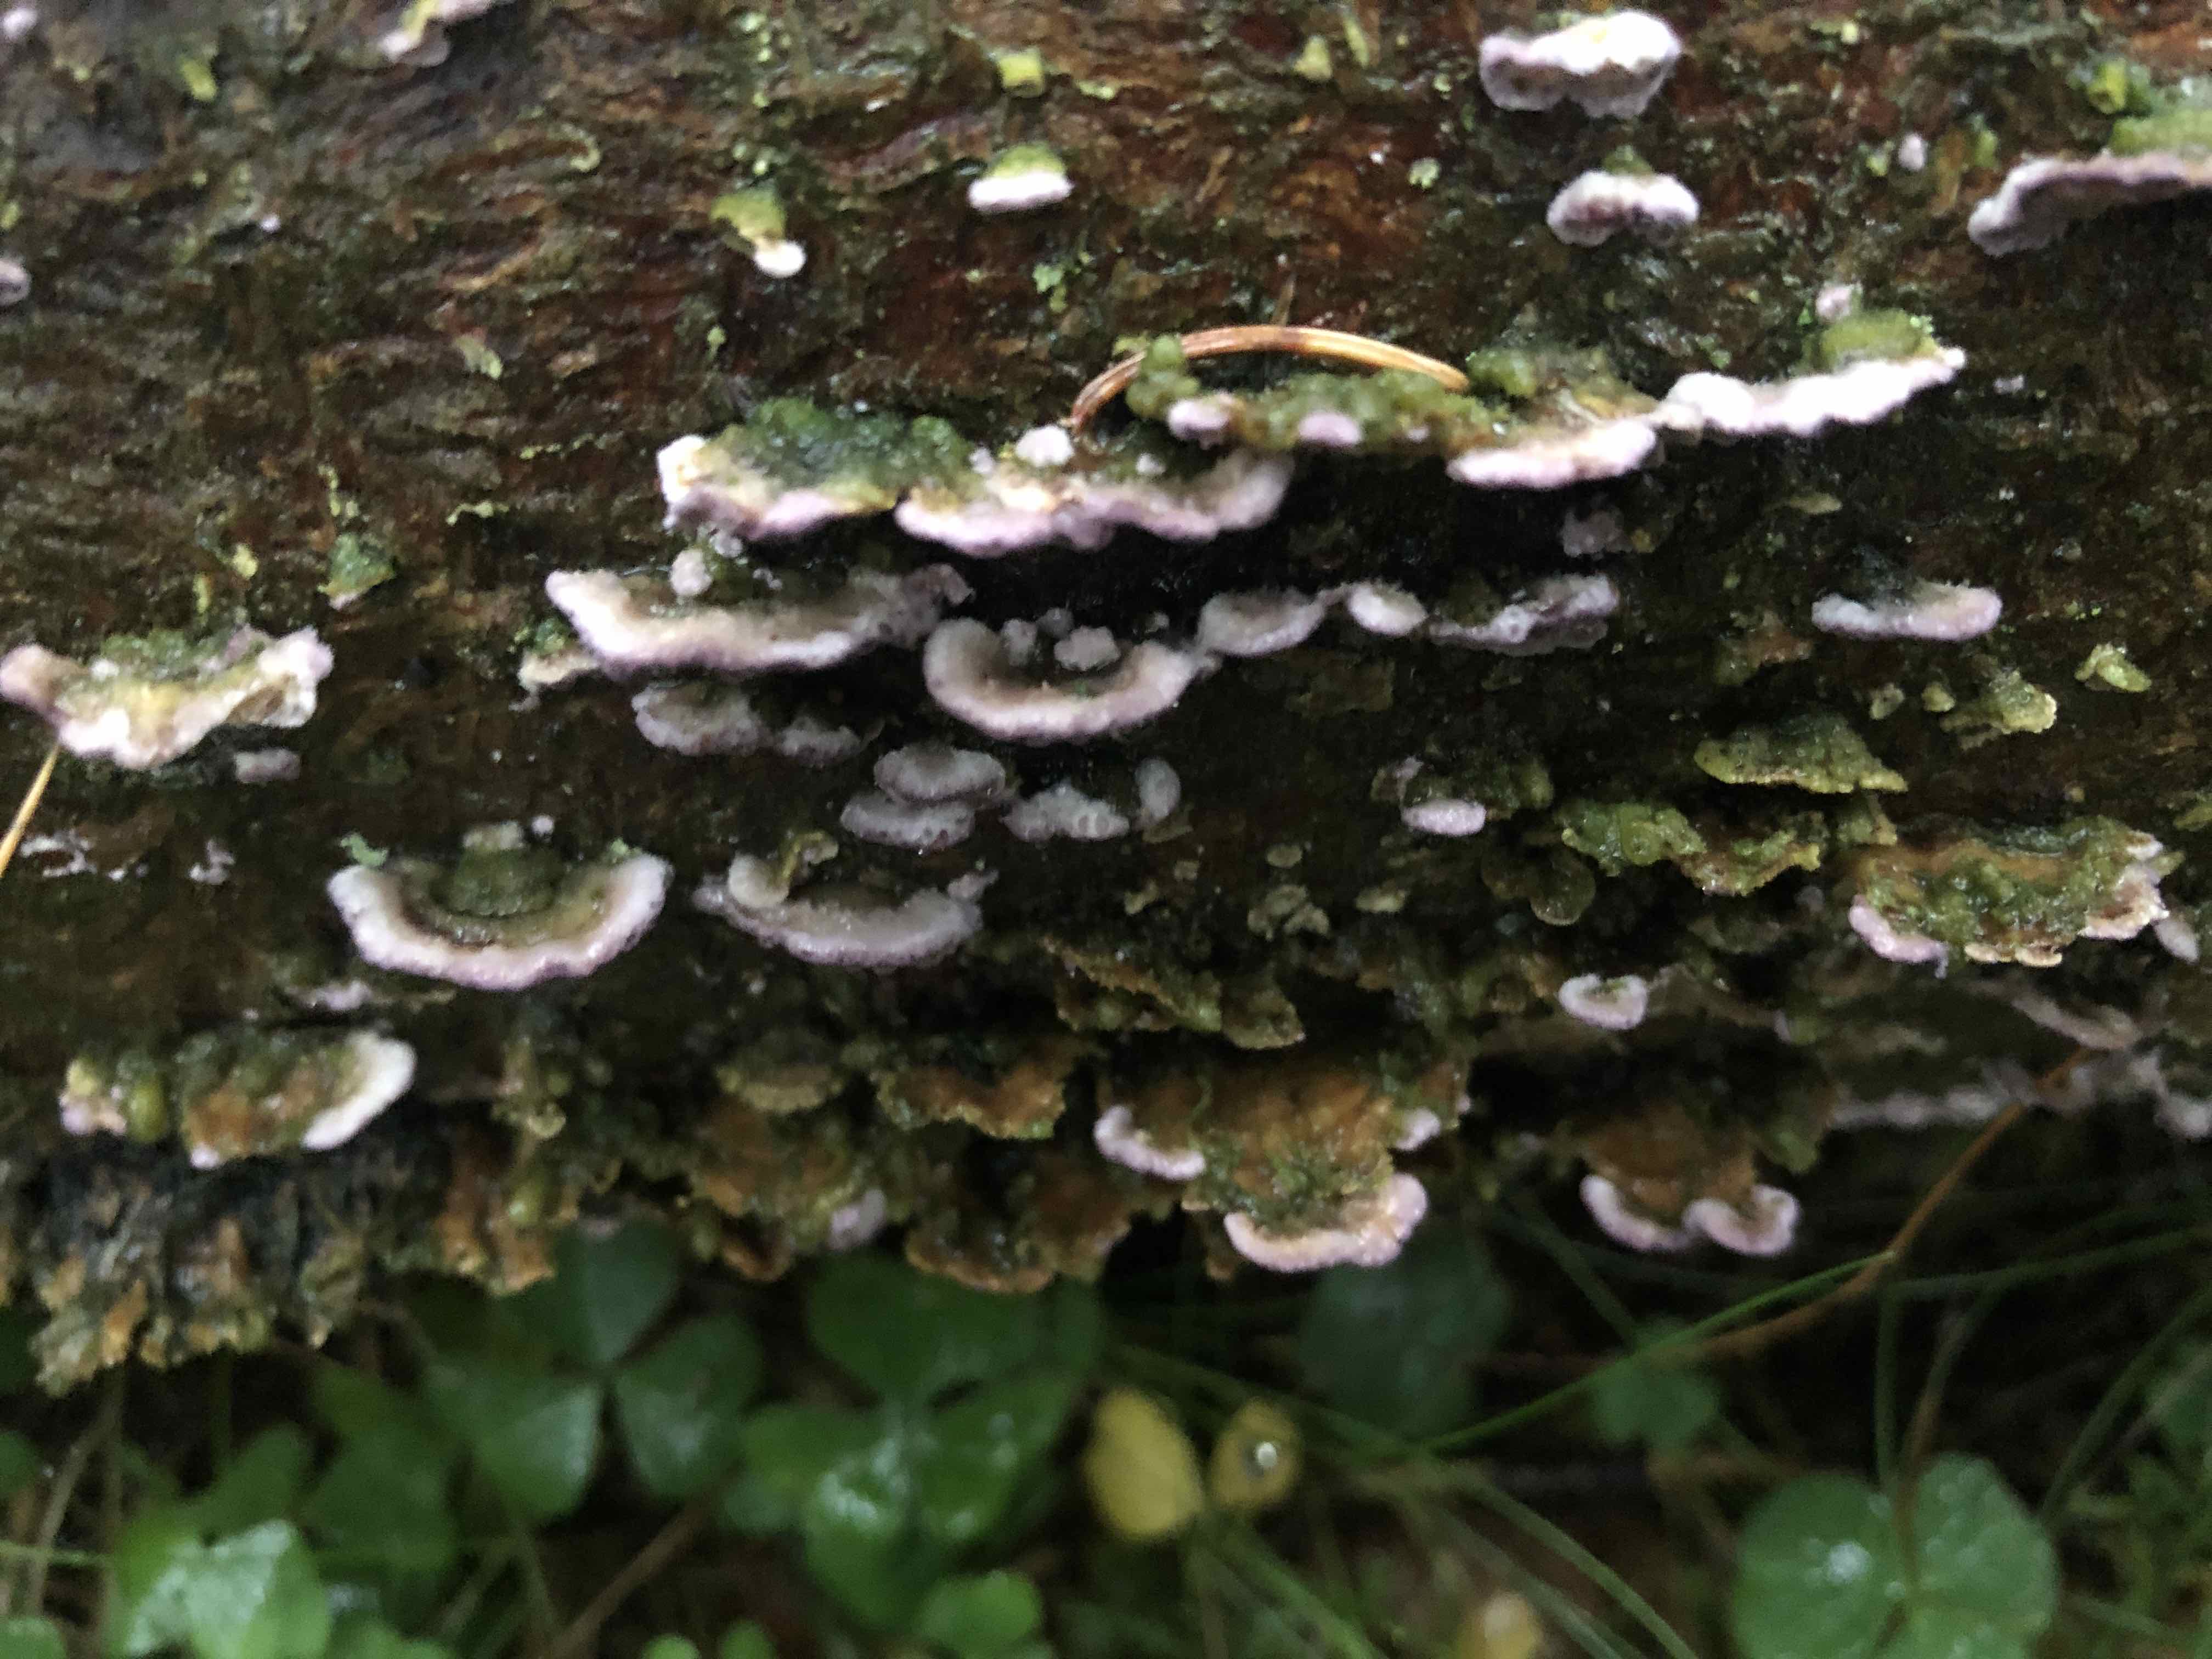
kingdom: Fungi
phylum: Basidiomycota
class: Agaricomycetes
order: Hymenochaetales
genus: Trichaptum
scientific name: Trichaptum abietinum
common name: almindelig violporesvamp
